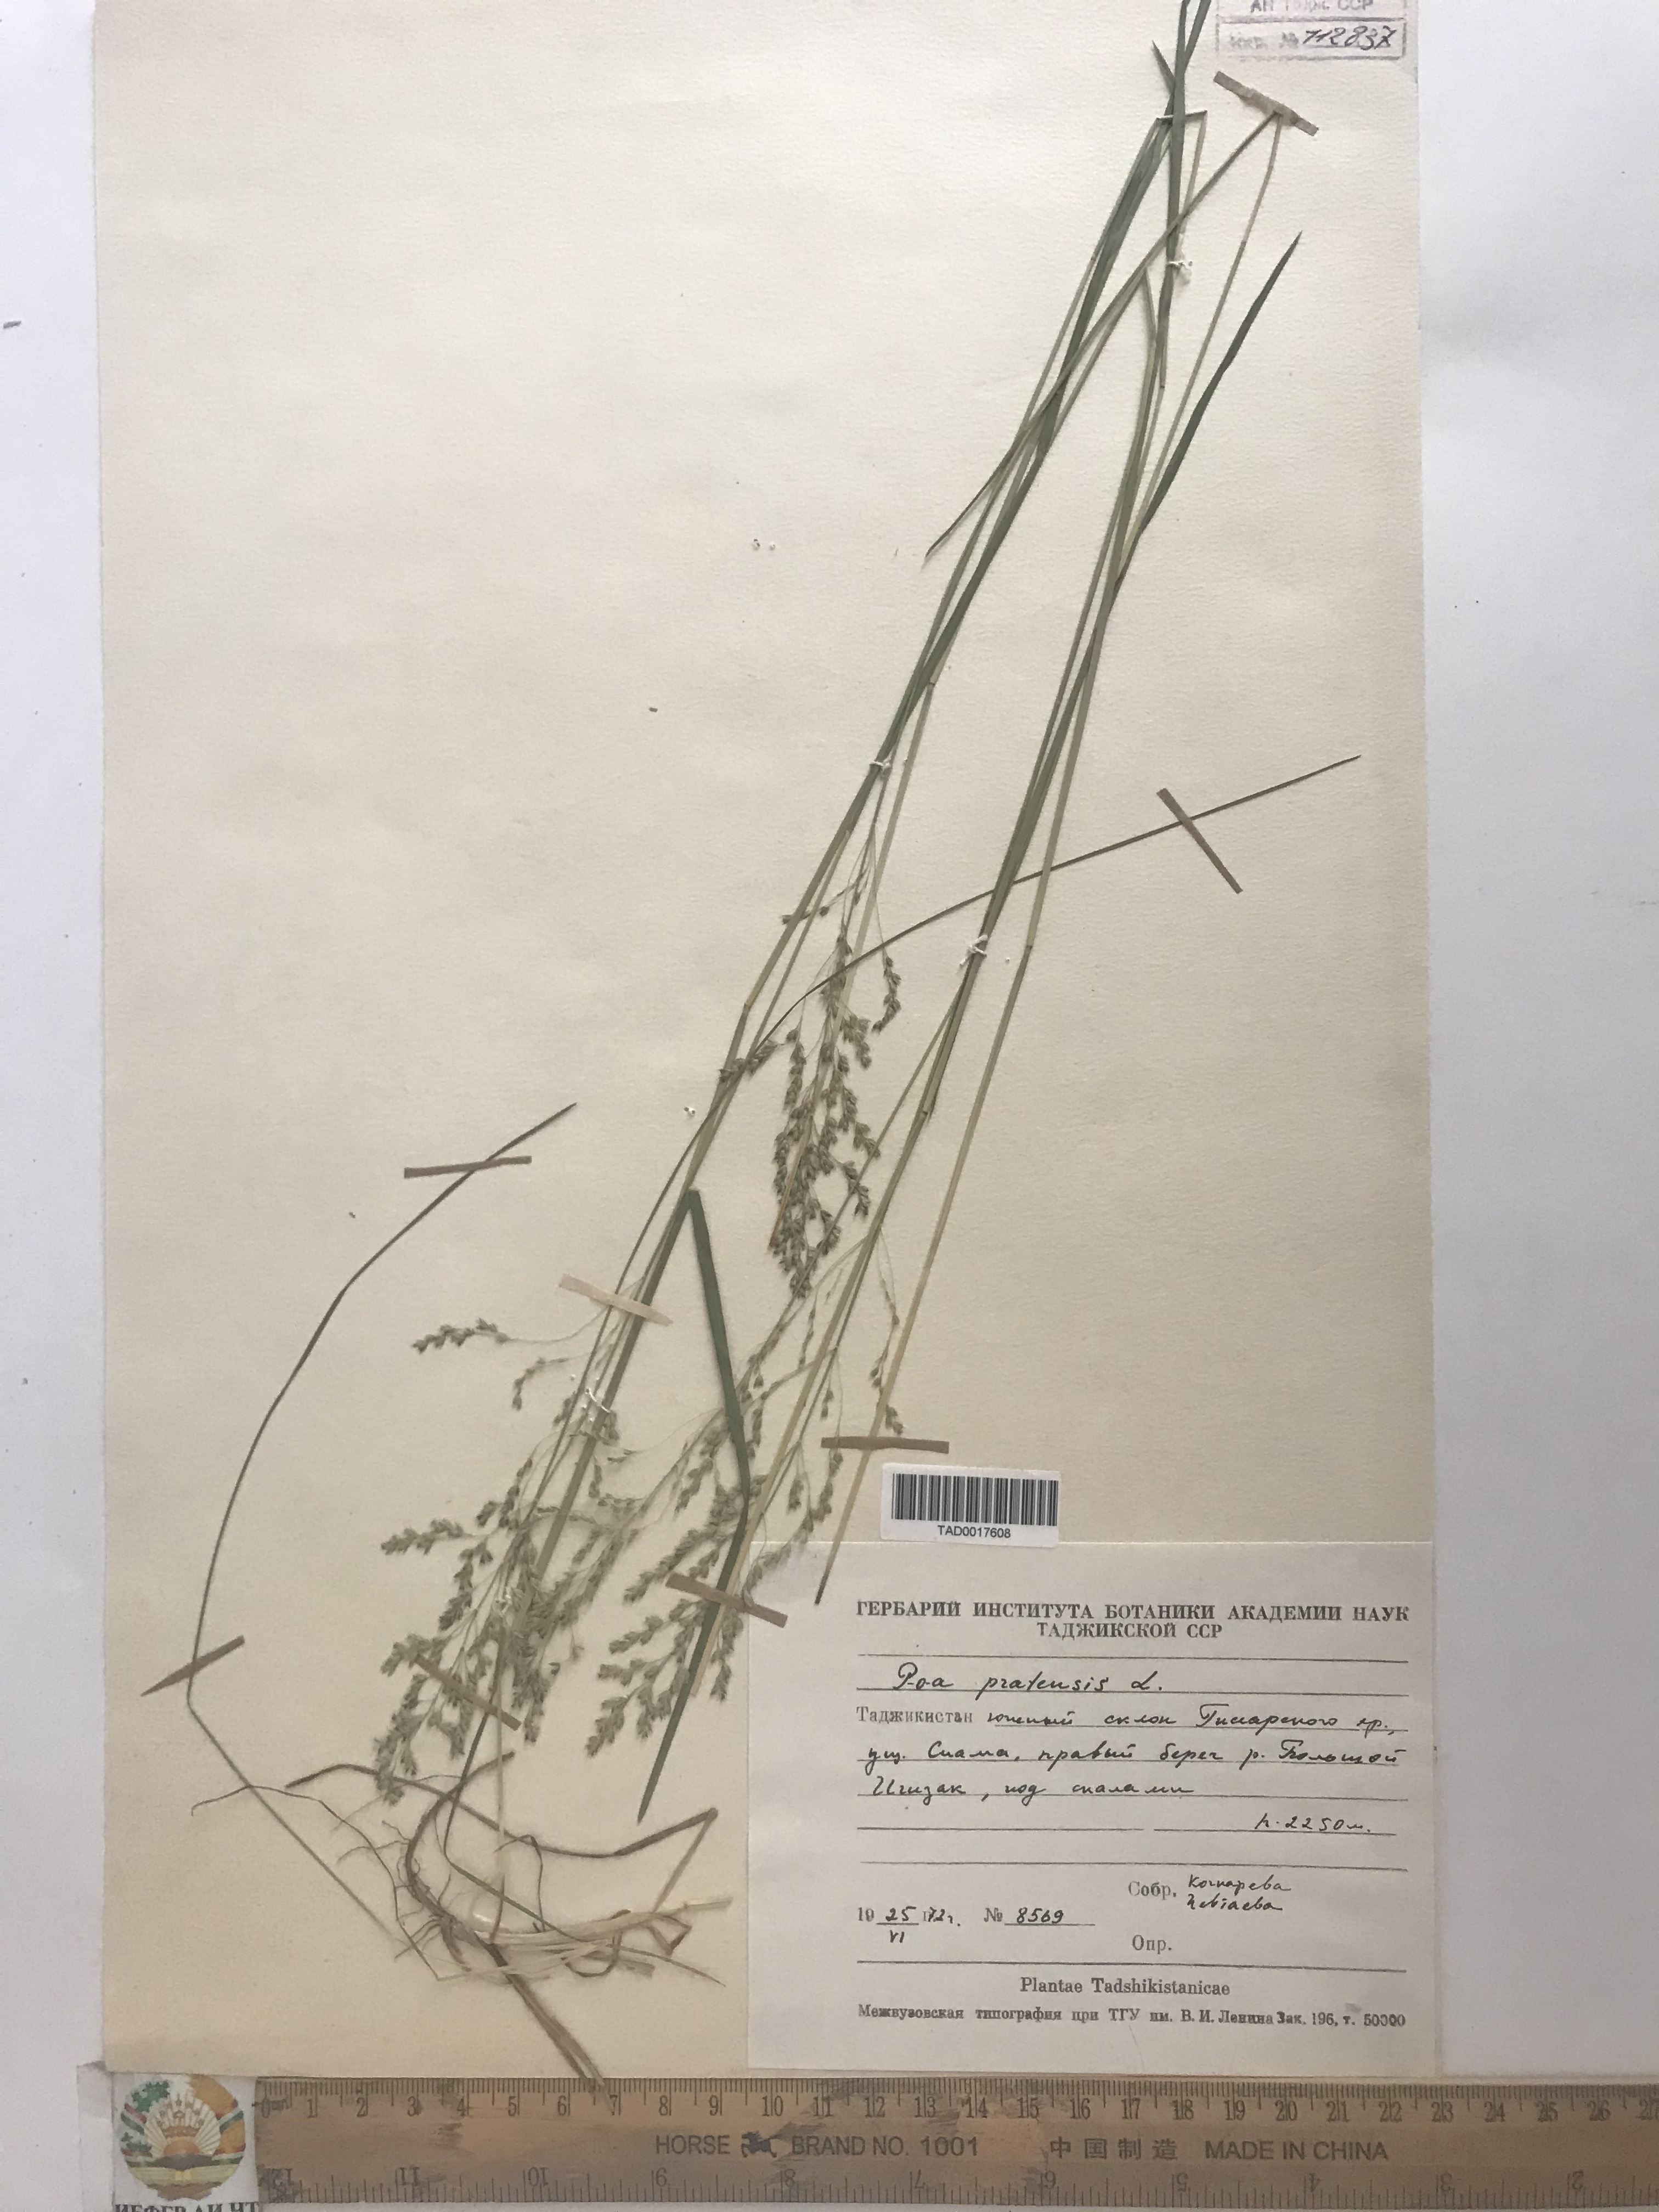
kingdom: Plantae
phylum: Tracheophyta
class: Liliopsida
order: Poales
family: Poaceae
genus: Poa
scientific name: Poa pratensis
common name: Kentucky bluegrass
